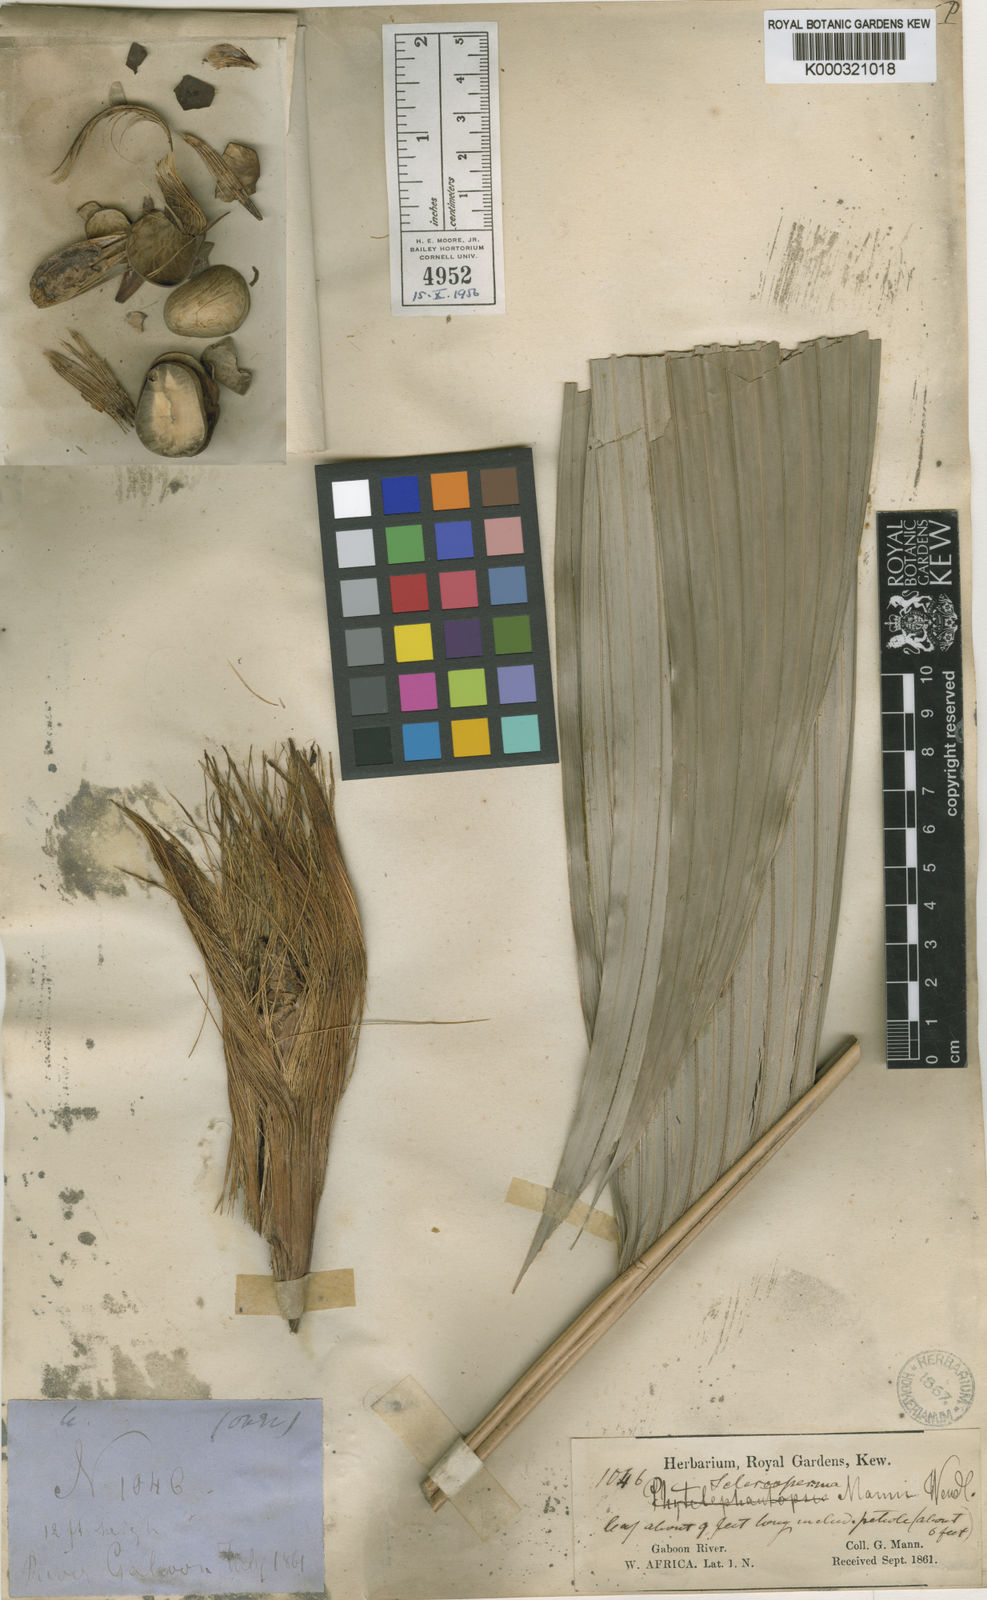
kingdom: Plantae
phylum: Tracheophyta
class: Liliopsida
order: Arecales
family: Arecaceae
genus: Sclerosperma
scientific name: Sclerosperma mannii
